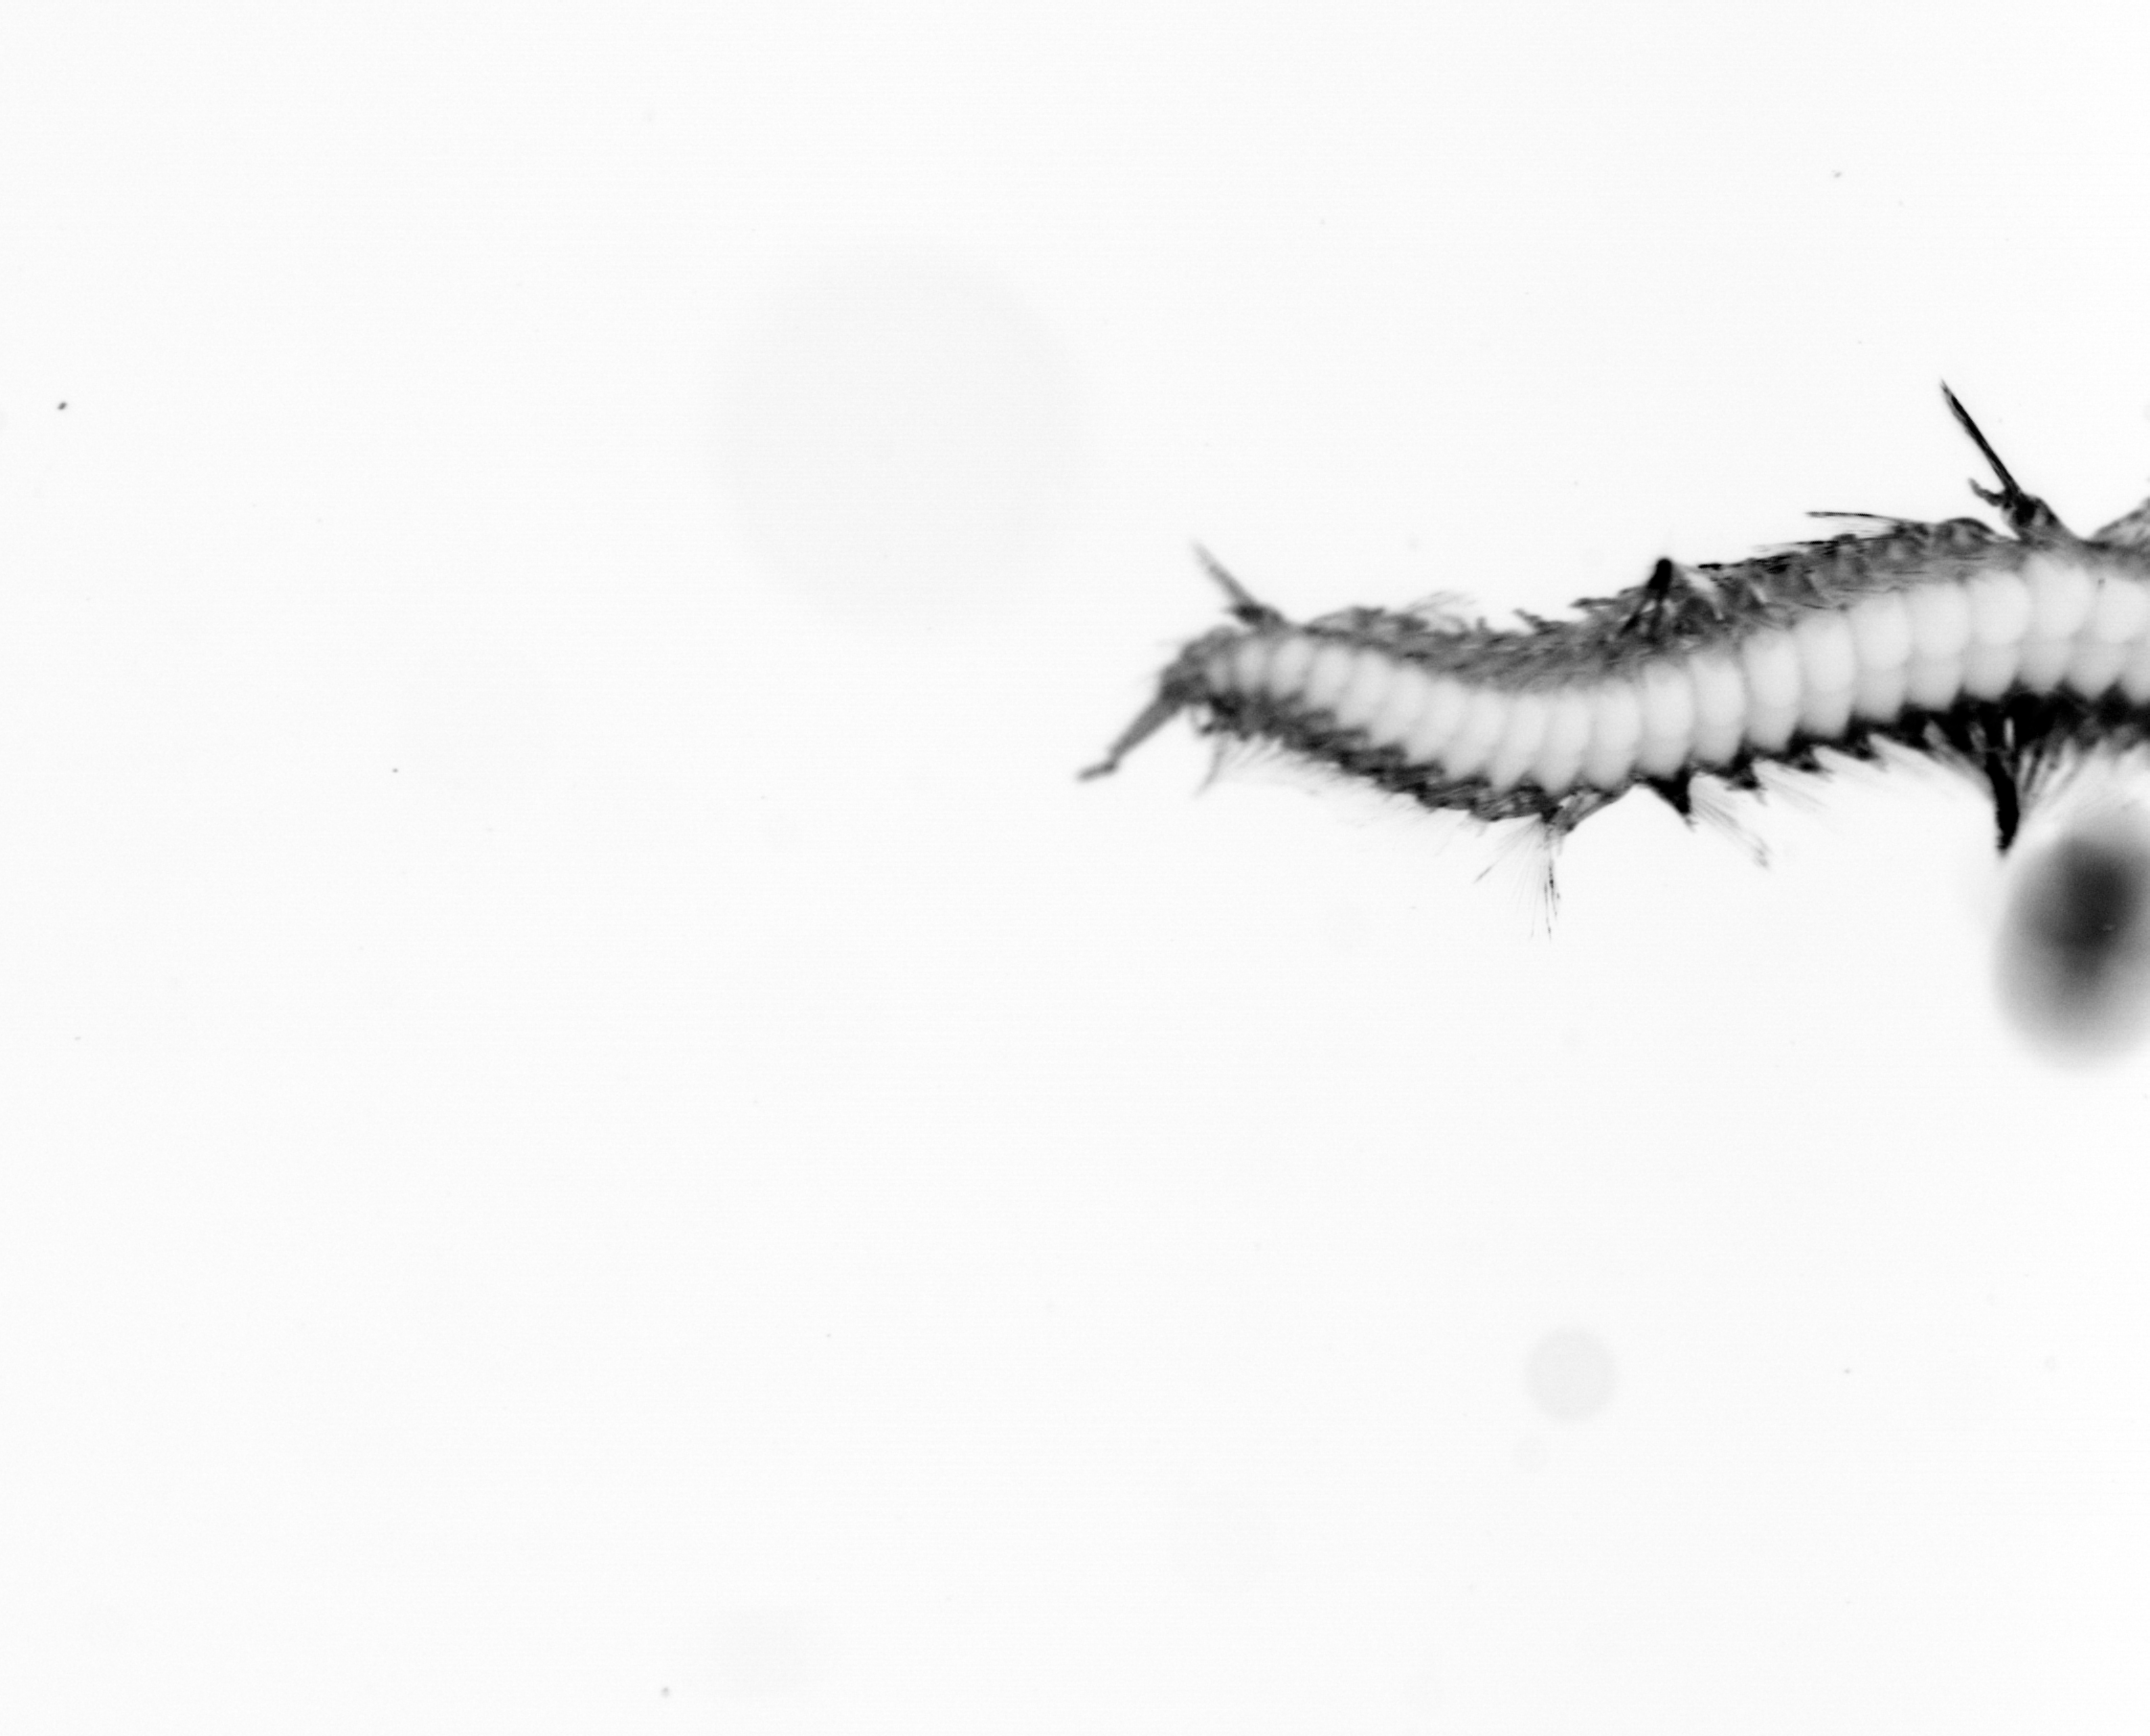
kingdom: Animalia
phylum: Annelida
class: Polychaeta
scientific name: Polychaeta
